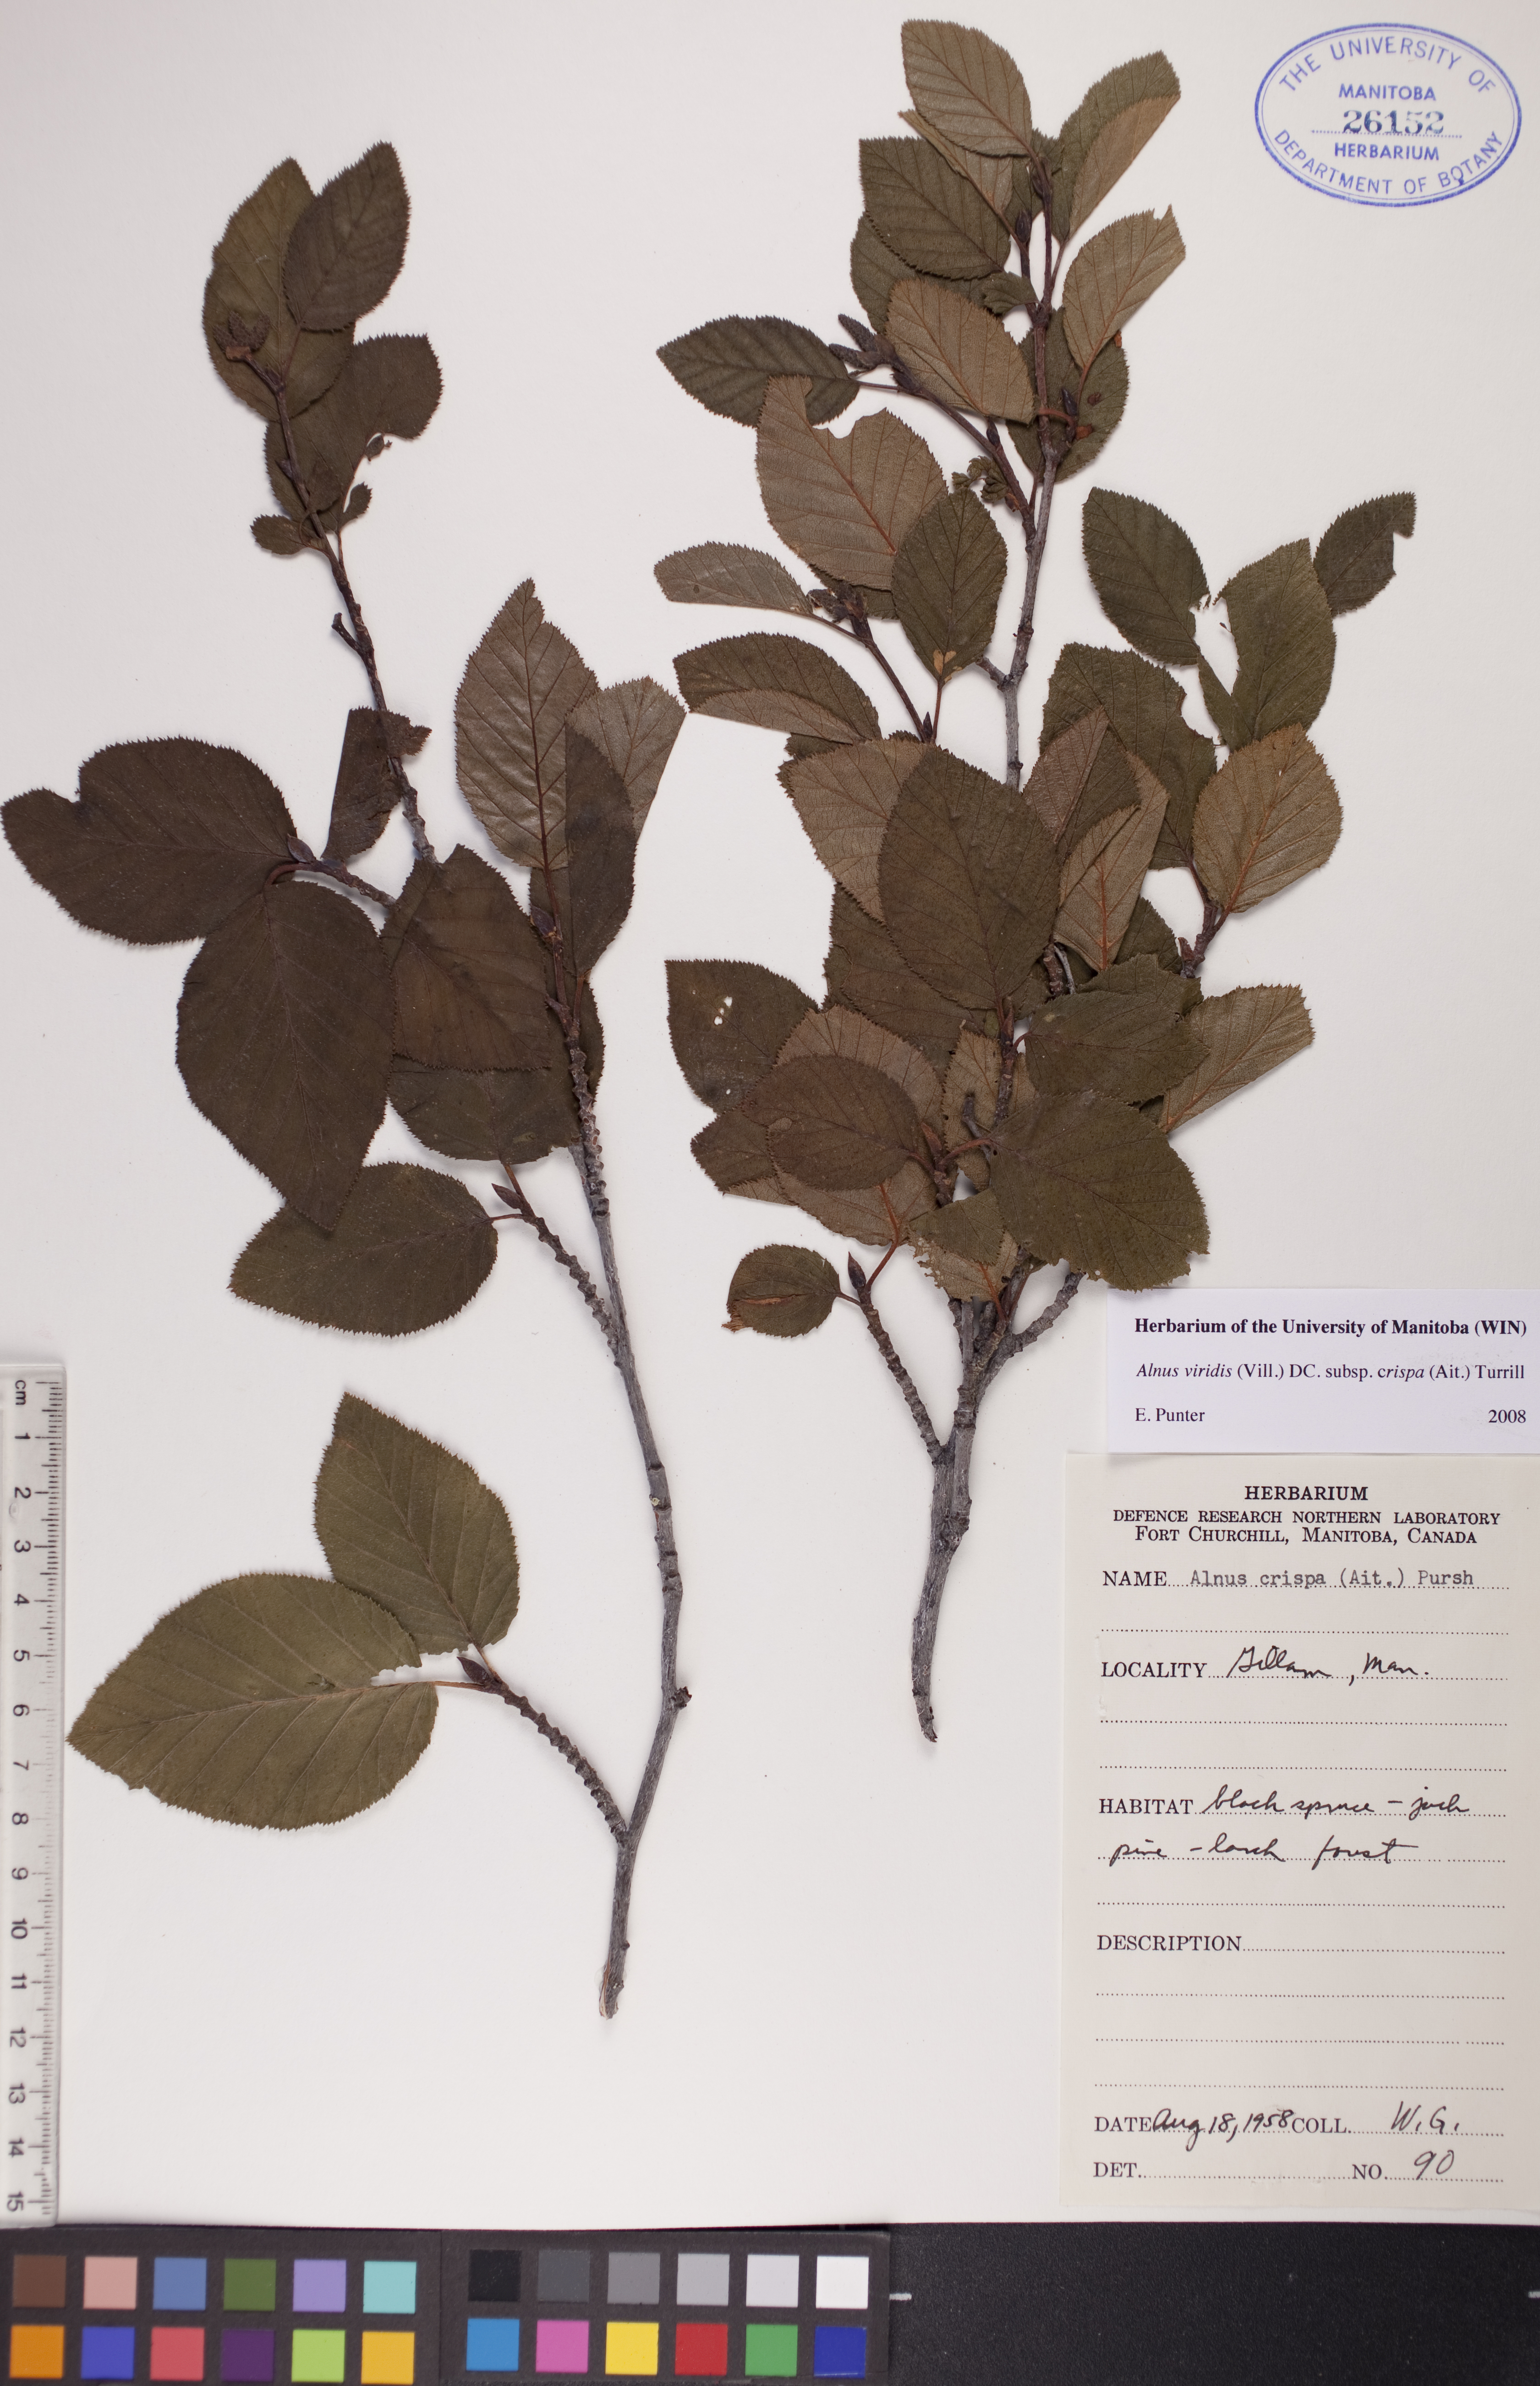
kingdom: Plantae
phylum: Tracheophyta
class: Magnoliopsida
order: Fagales
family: Betulaceae
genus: Alnus
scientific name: Alnus alnobetula
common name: Green alder
